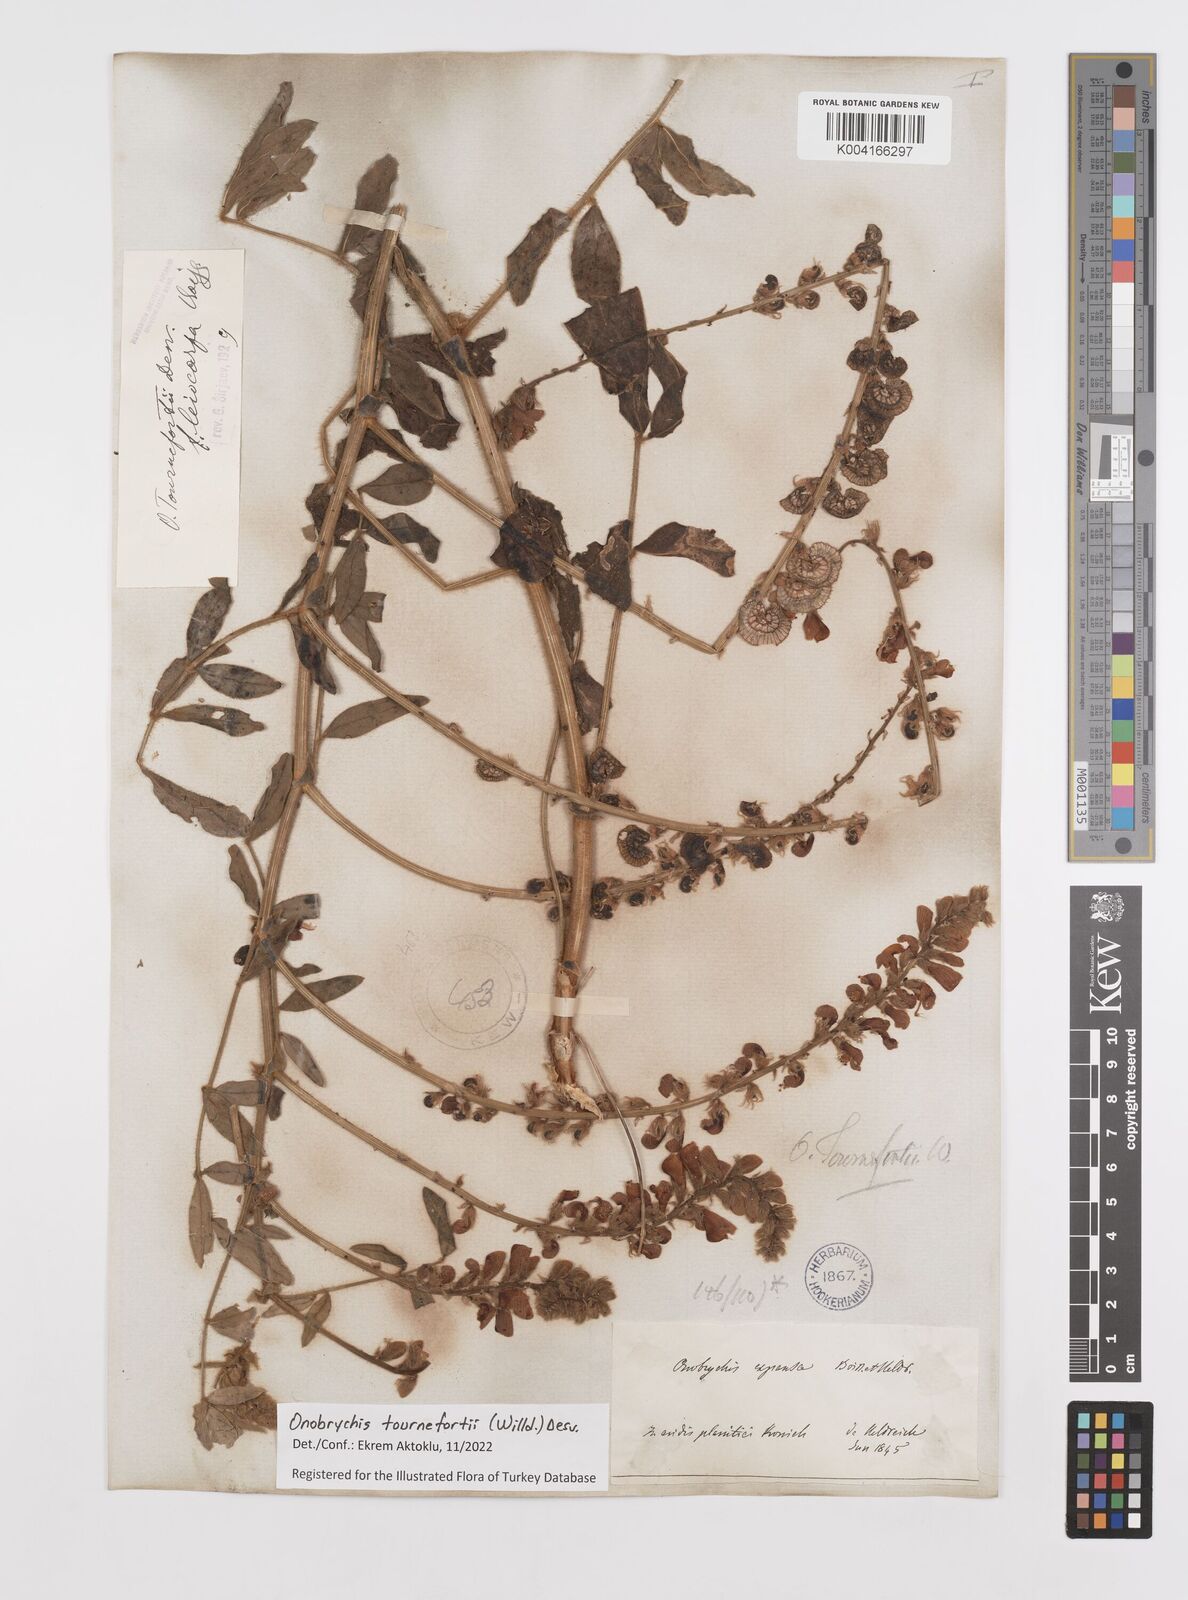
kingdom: Plantae
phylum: Tracheophyta
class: Magnoliopsida
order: Fabales
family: Fabaceae
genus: Onobrychis
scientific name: Onobrychis tournefortii
